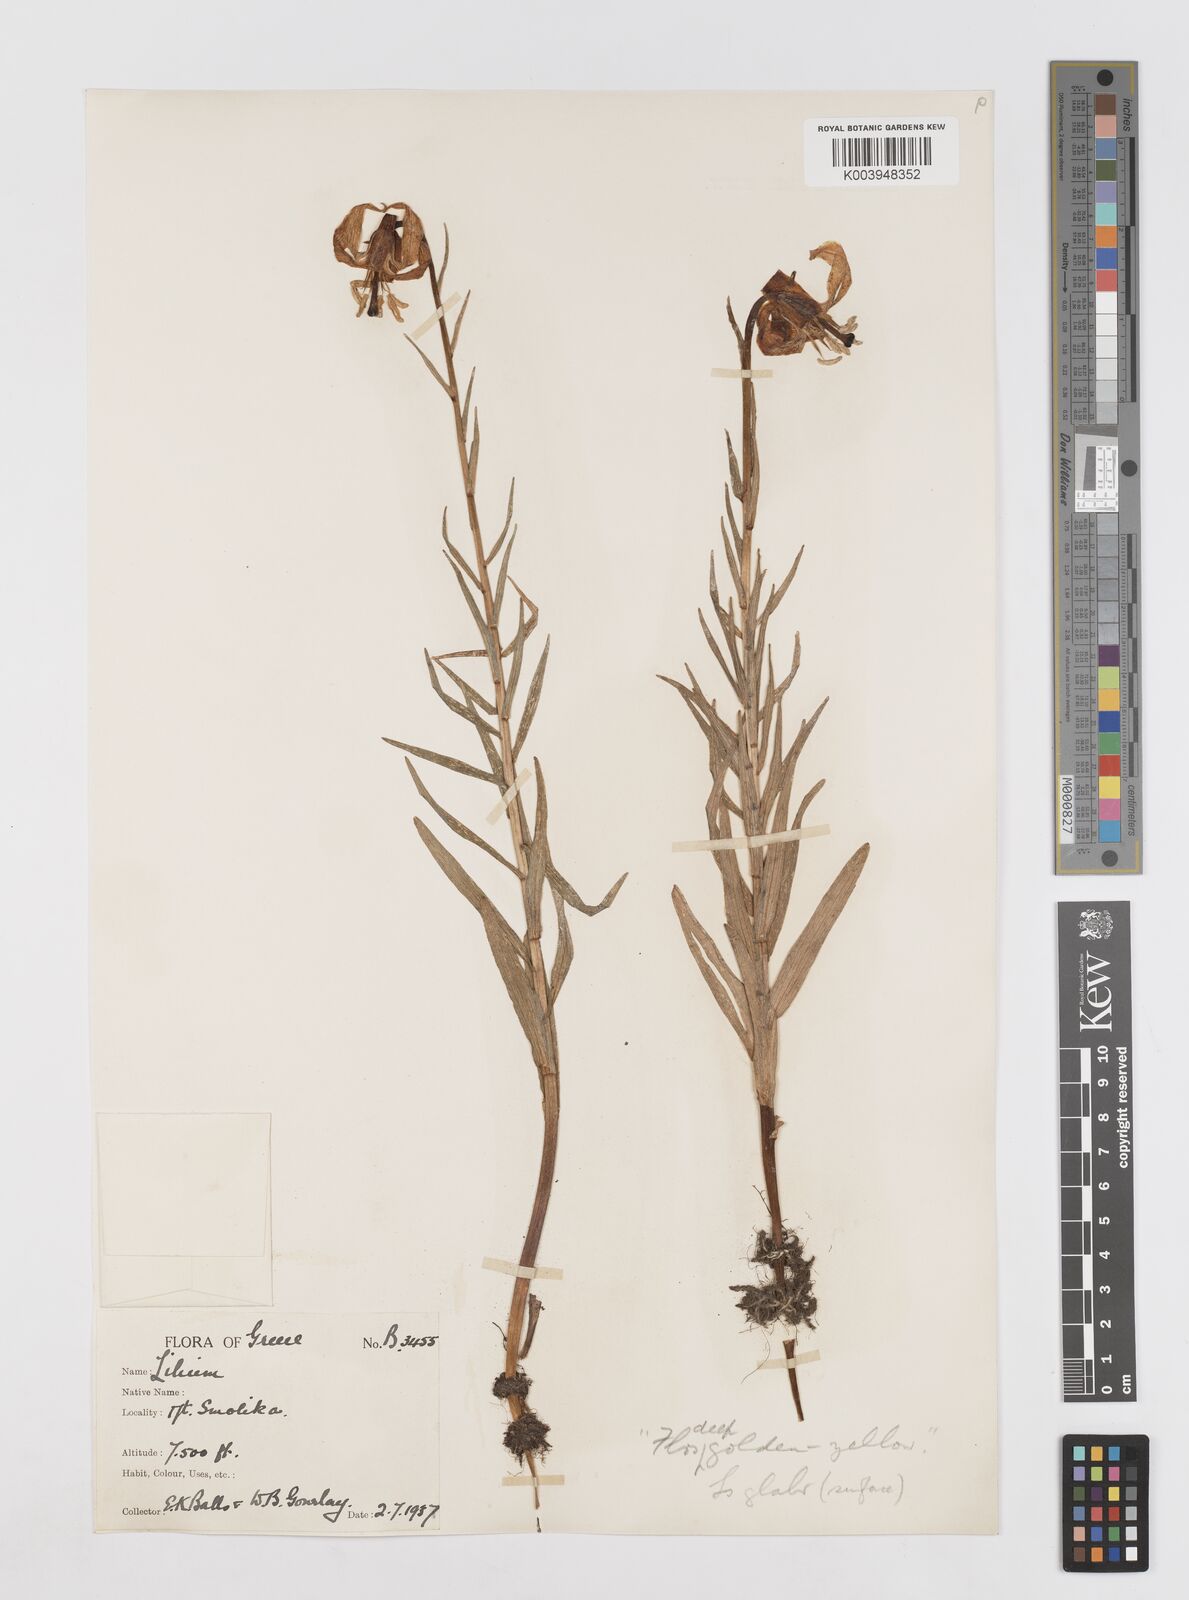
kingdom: Plantae
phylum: Tracheophyta
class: Liliopsida
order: Liliales
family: Liliaceae
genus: Lilium
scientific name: Lilium albanicum
